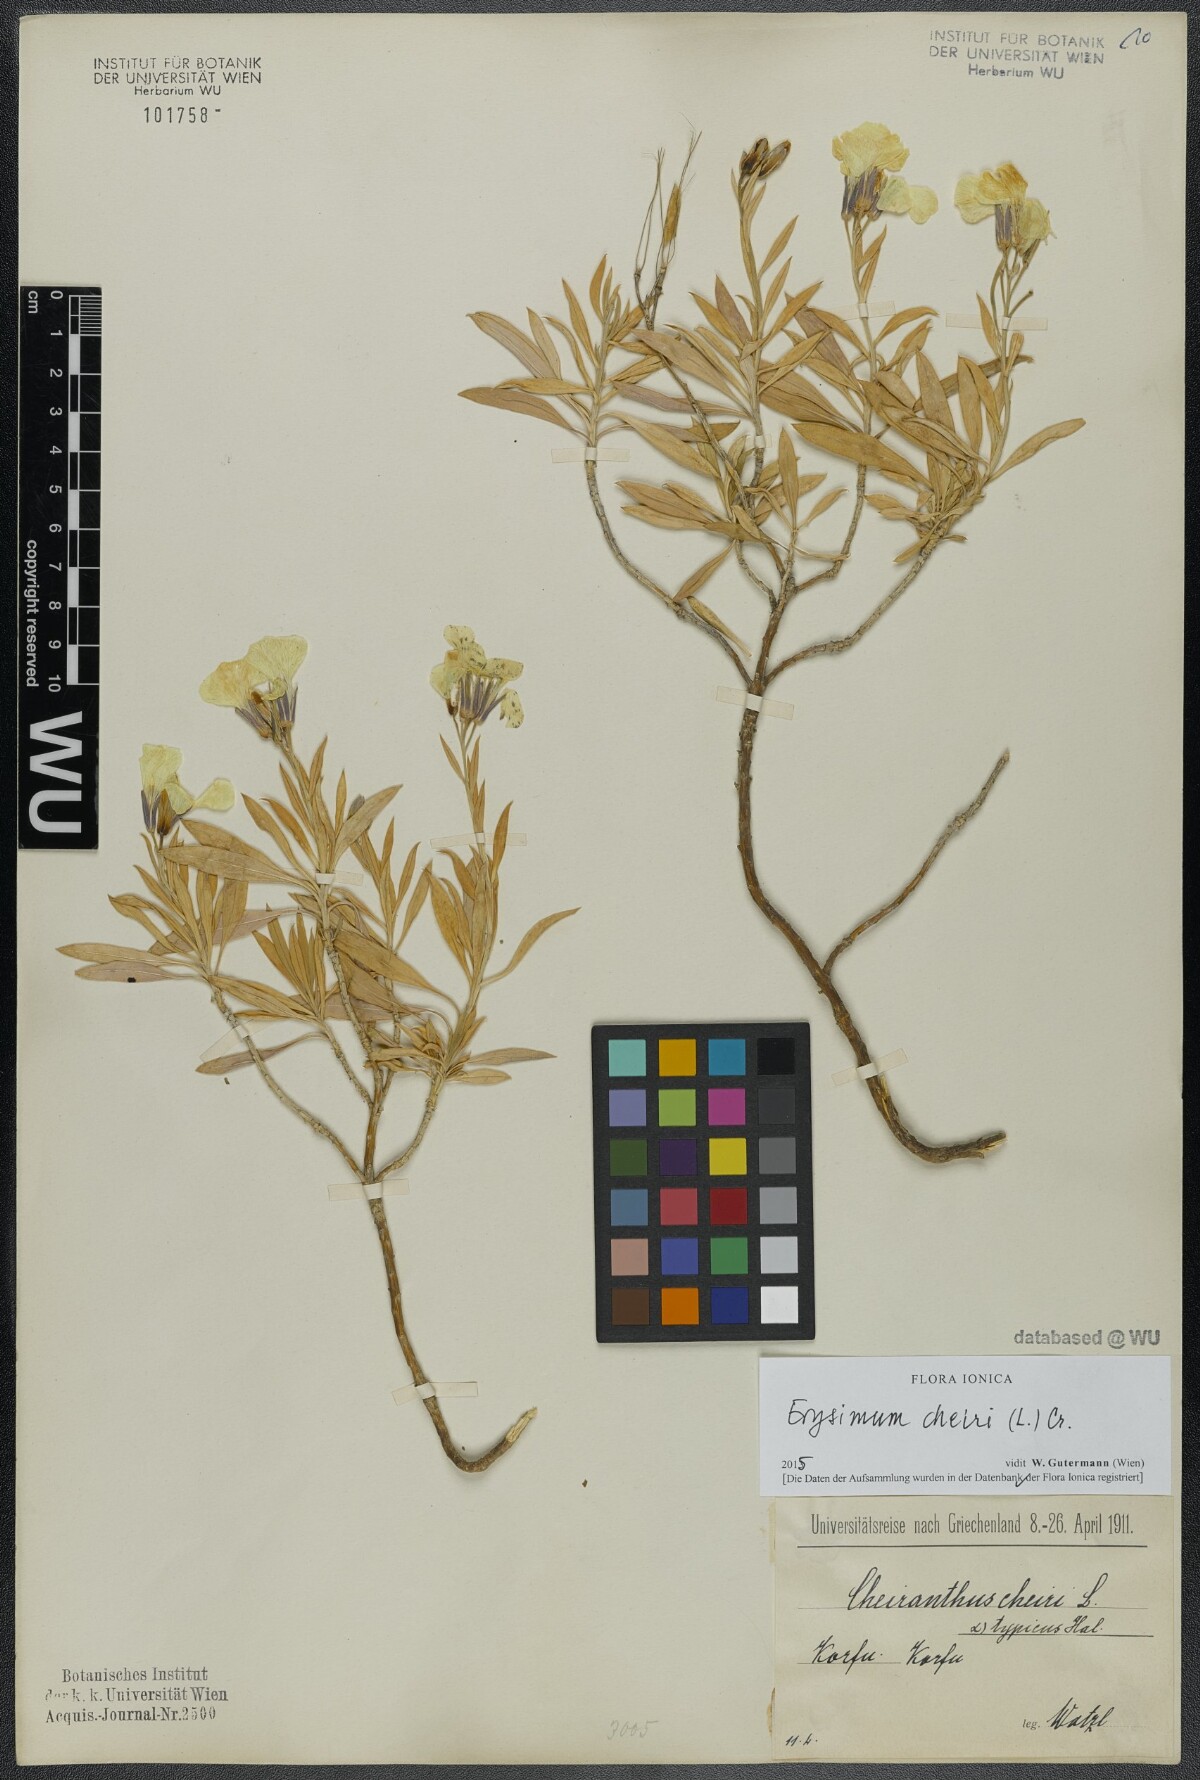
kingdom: Plantae
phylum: Tracheophyta
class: Magnoliopsida
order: Brassicales
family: Brassicaceae
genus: Erysimum
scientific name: Erysimum cheiri
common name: Wallflower
